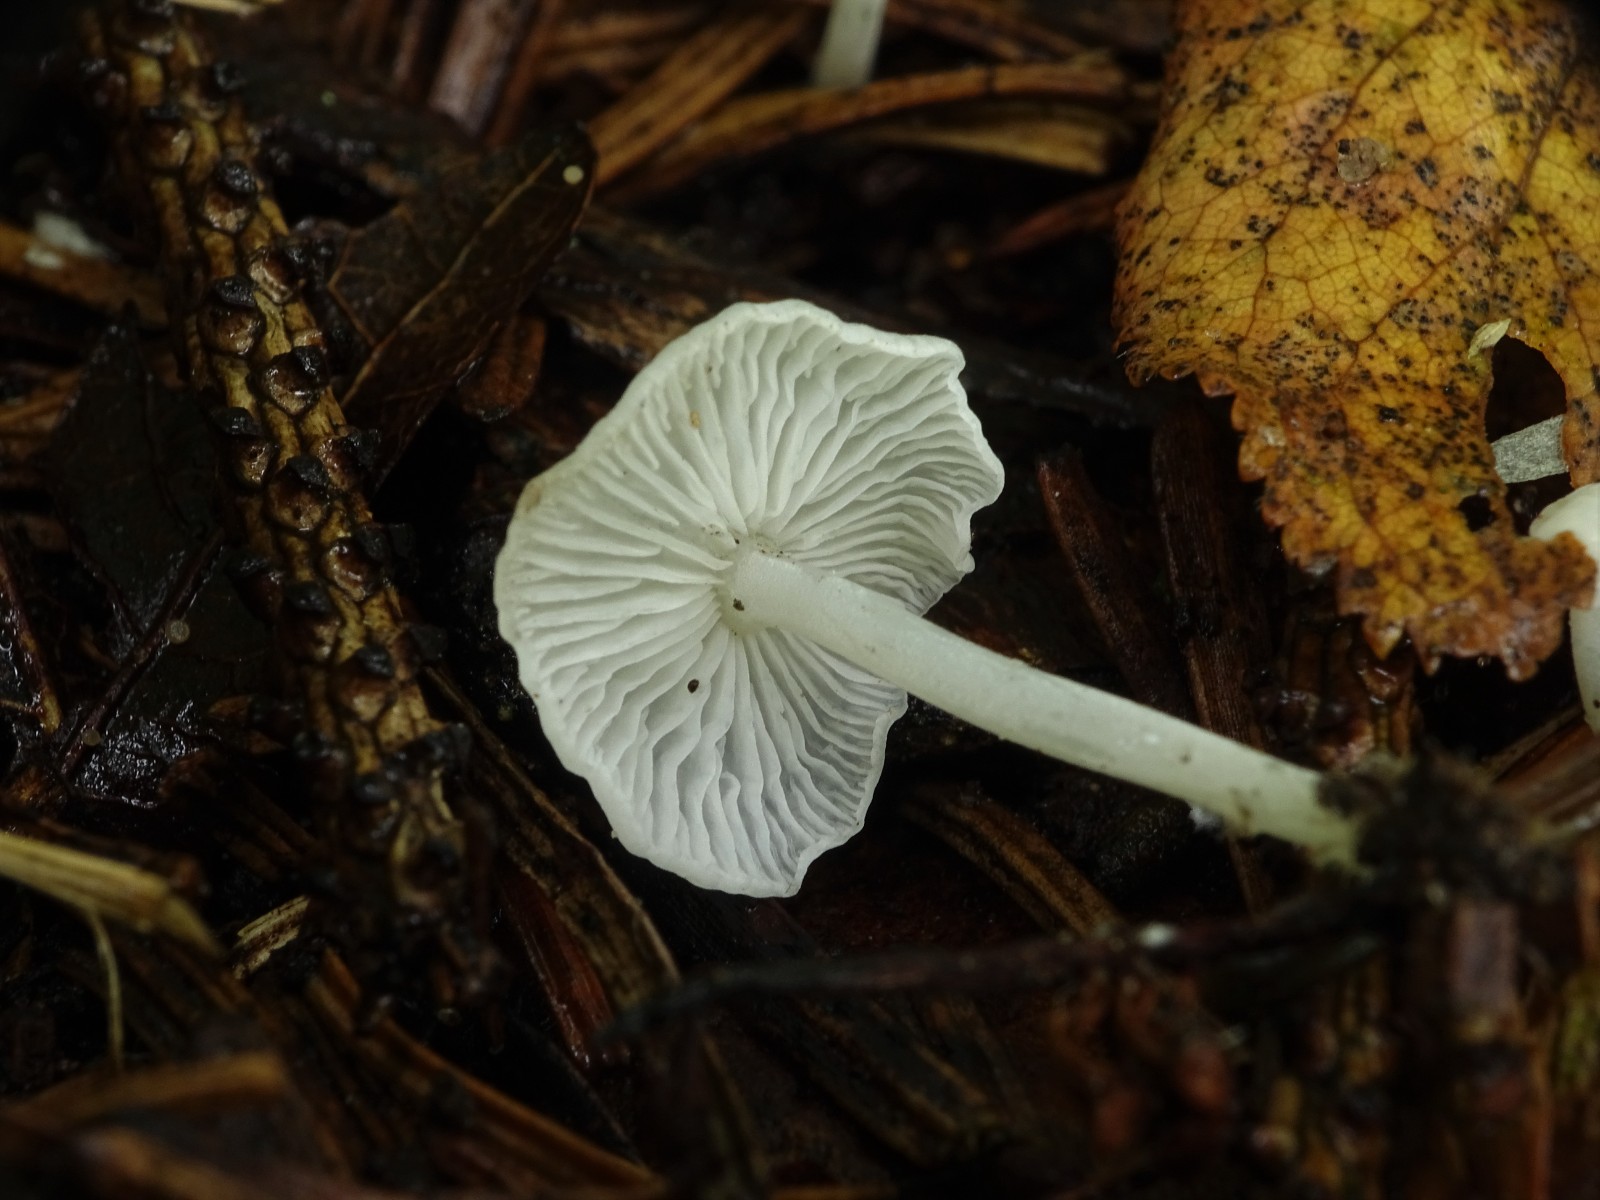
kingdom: Fungi
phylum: Basidiomycota
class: Agaricomycetes
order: Agaricales
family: Mycenaceae
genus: Hemimycena
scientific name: Hemimycena lactea
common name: mælkehvid huesvamp
